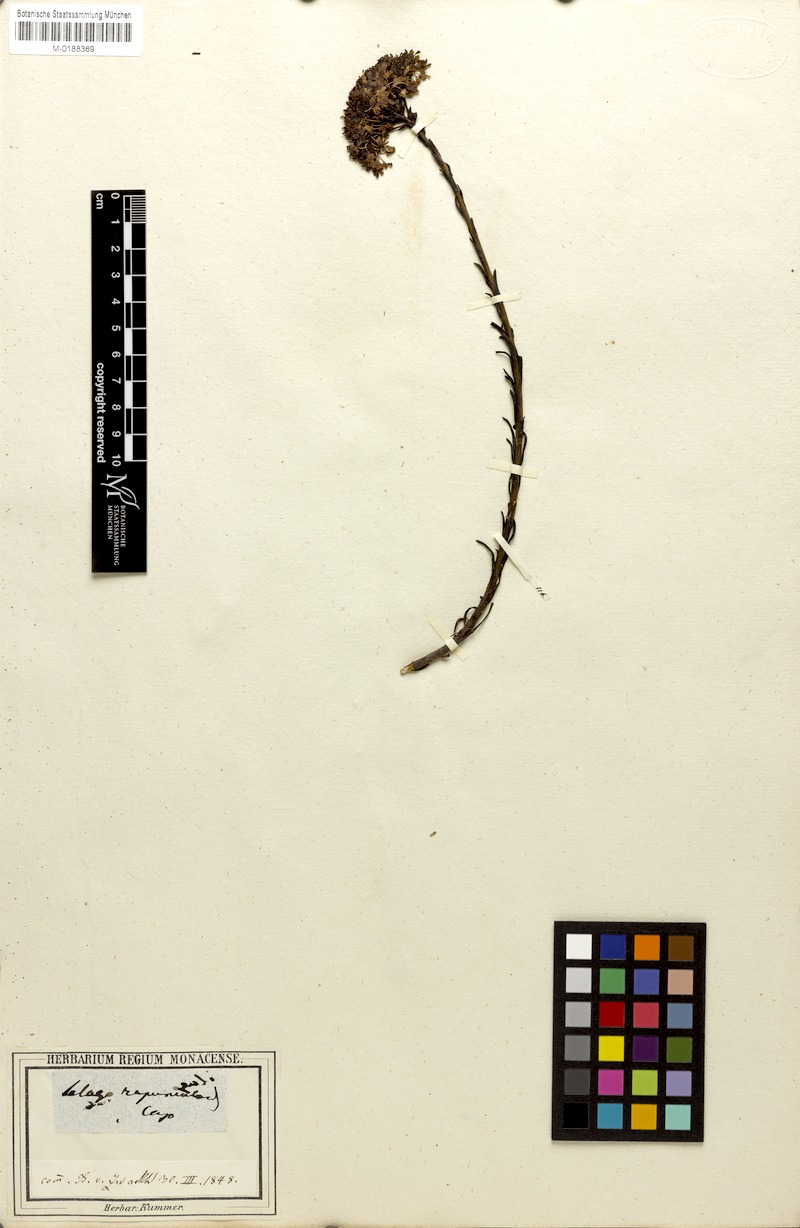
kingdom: Plantae
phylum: Tracheophyta
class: Magnoliopsida
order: Lamiales
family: Scrophulariaceae
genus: Pseudoselago
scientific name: Pseudoselago spuria
